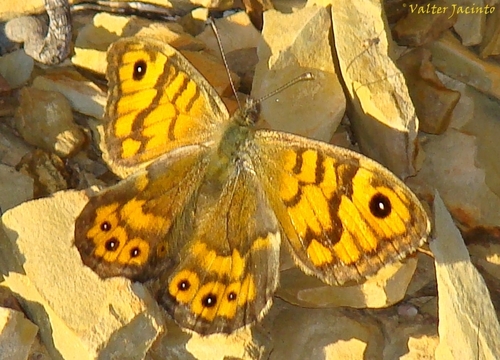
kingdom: Animalia
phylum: Arthropoda
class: Insecta
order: Lepidoptera
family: Nymphalidae
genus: Pararge
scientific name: Pararge Lasiommata megera
